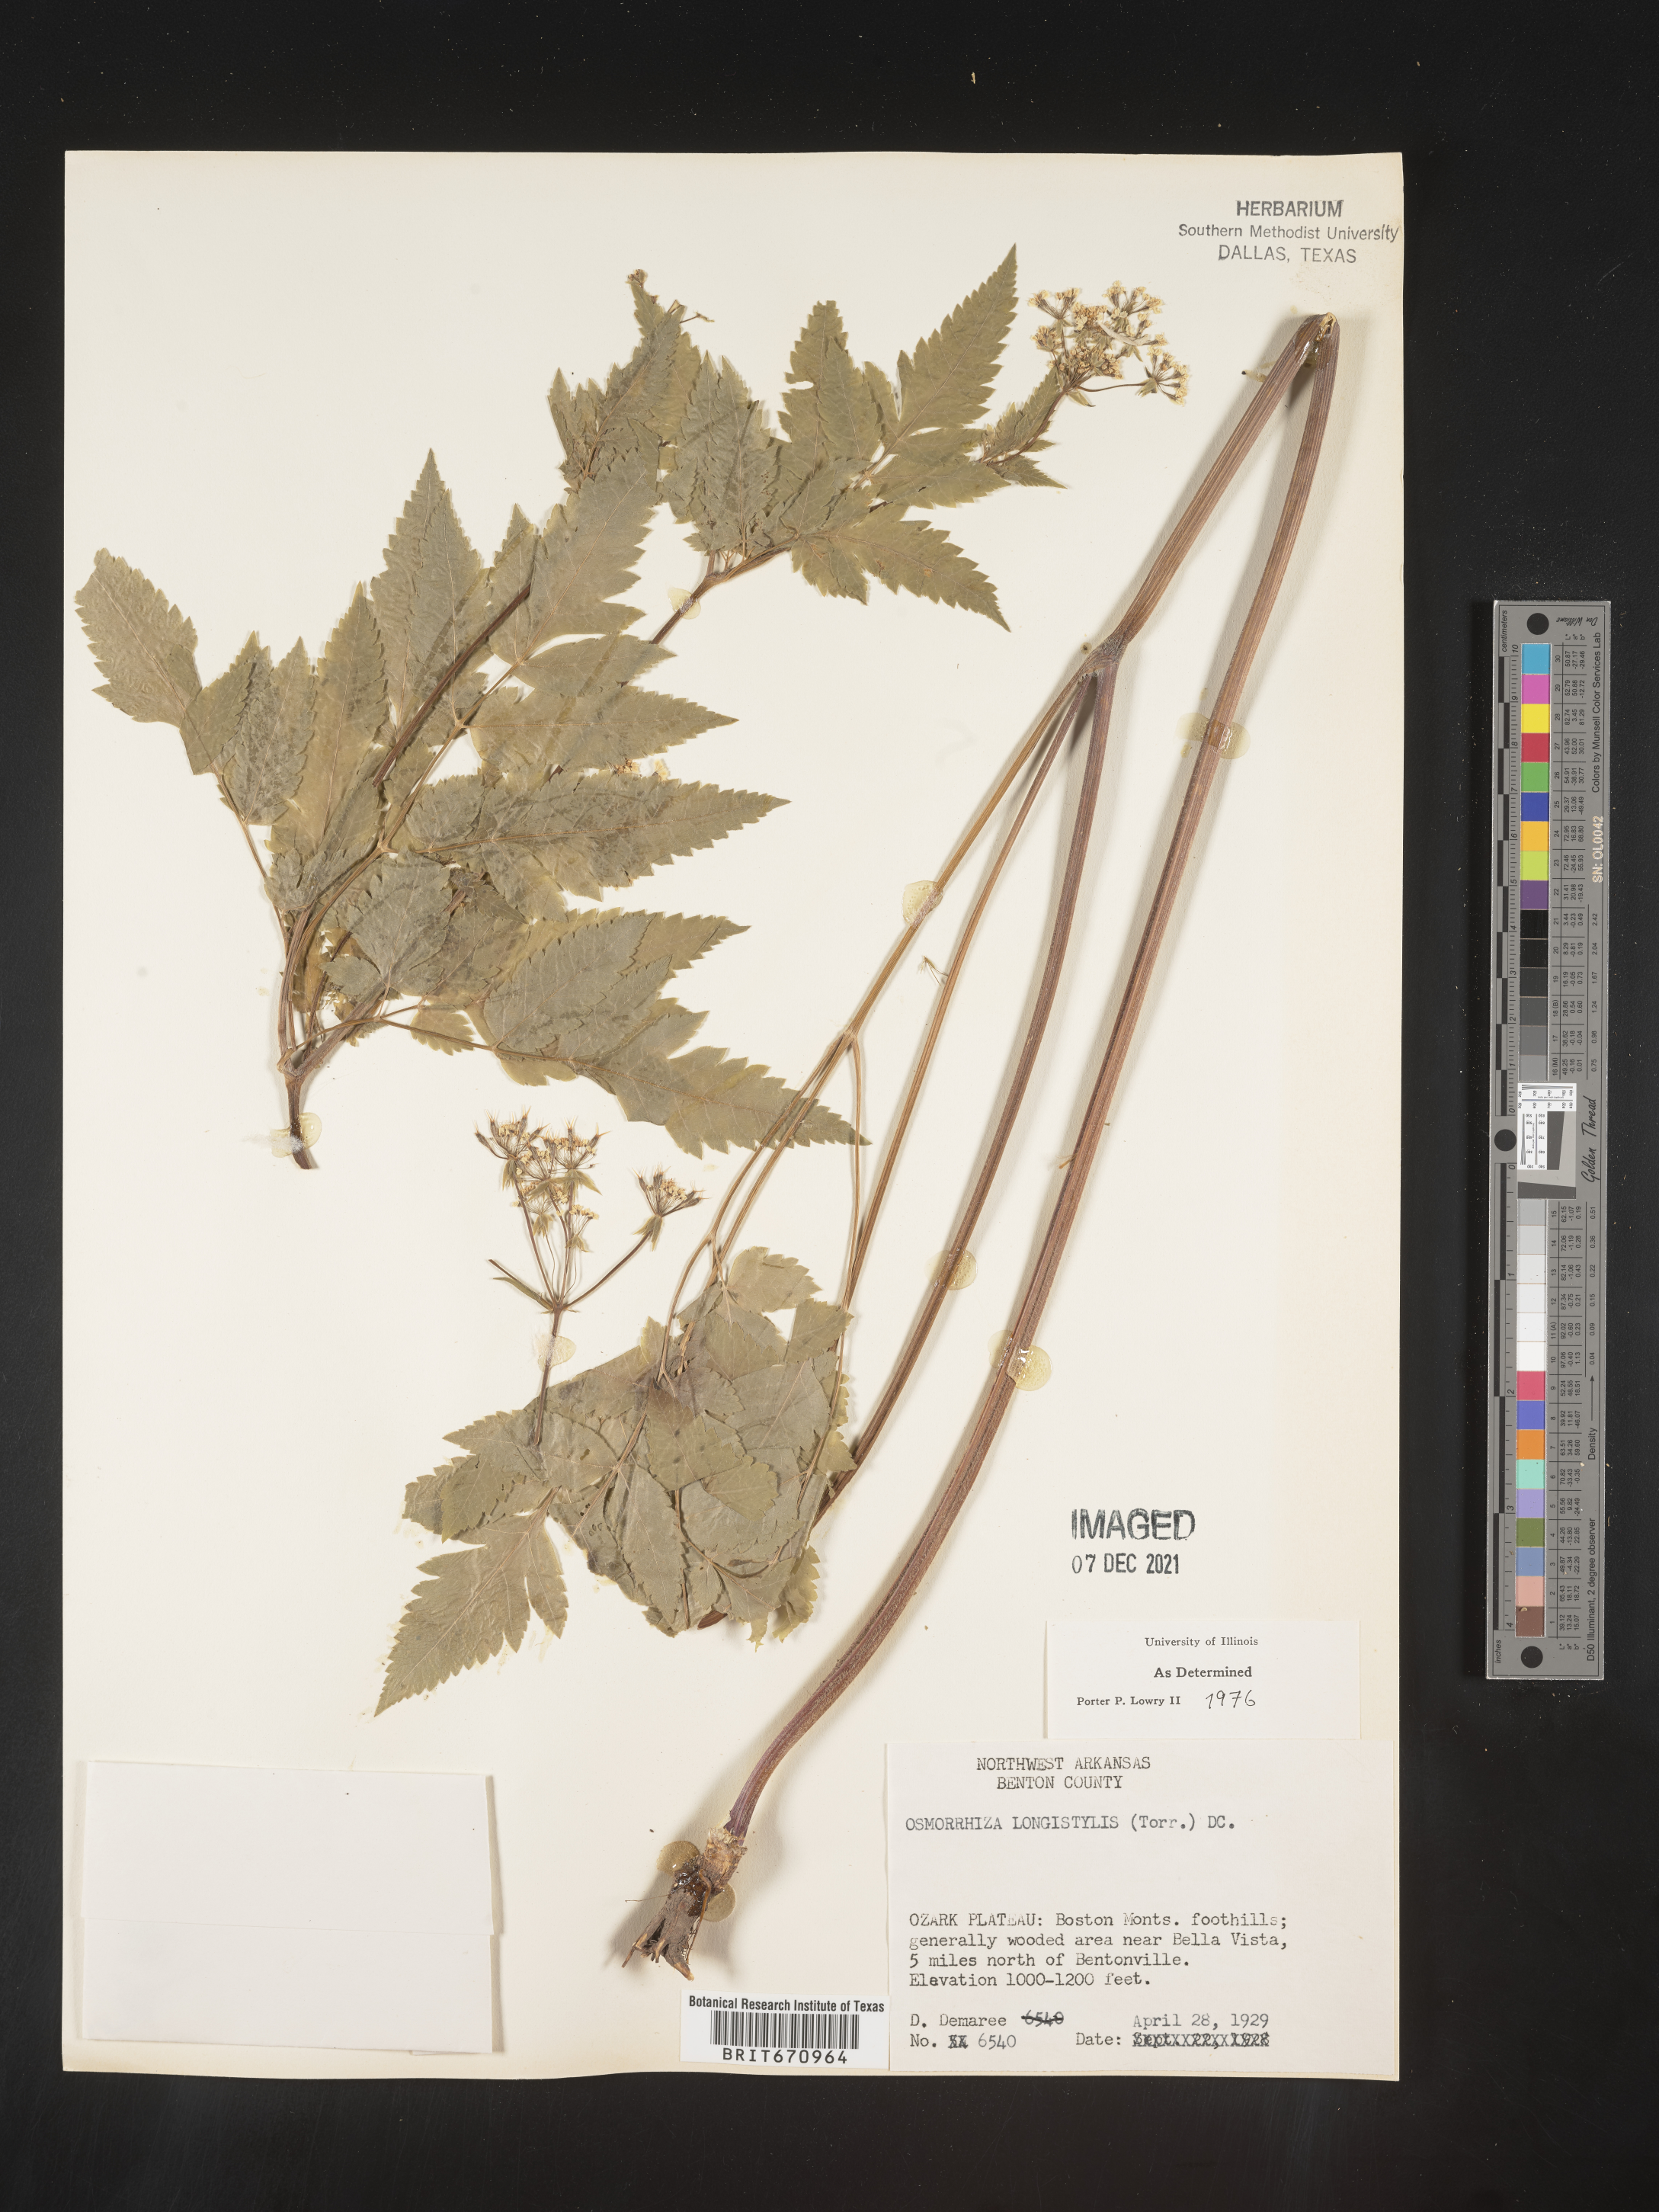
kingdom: Plantae
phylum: Tracheophyta
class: Magnoliopsida
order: Apiales
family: Apiaceae
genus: Osmorhiza
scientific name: Osmorhiza longistylis
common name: Smooth sweet cicely
